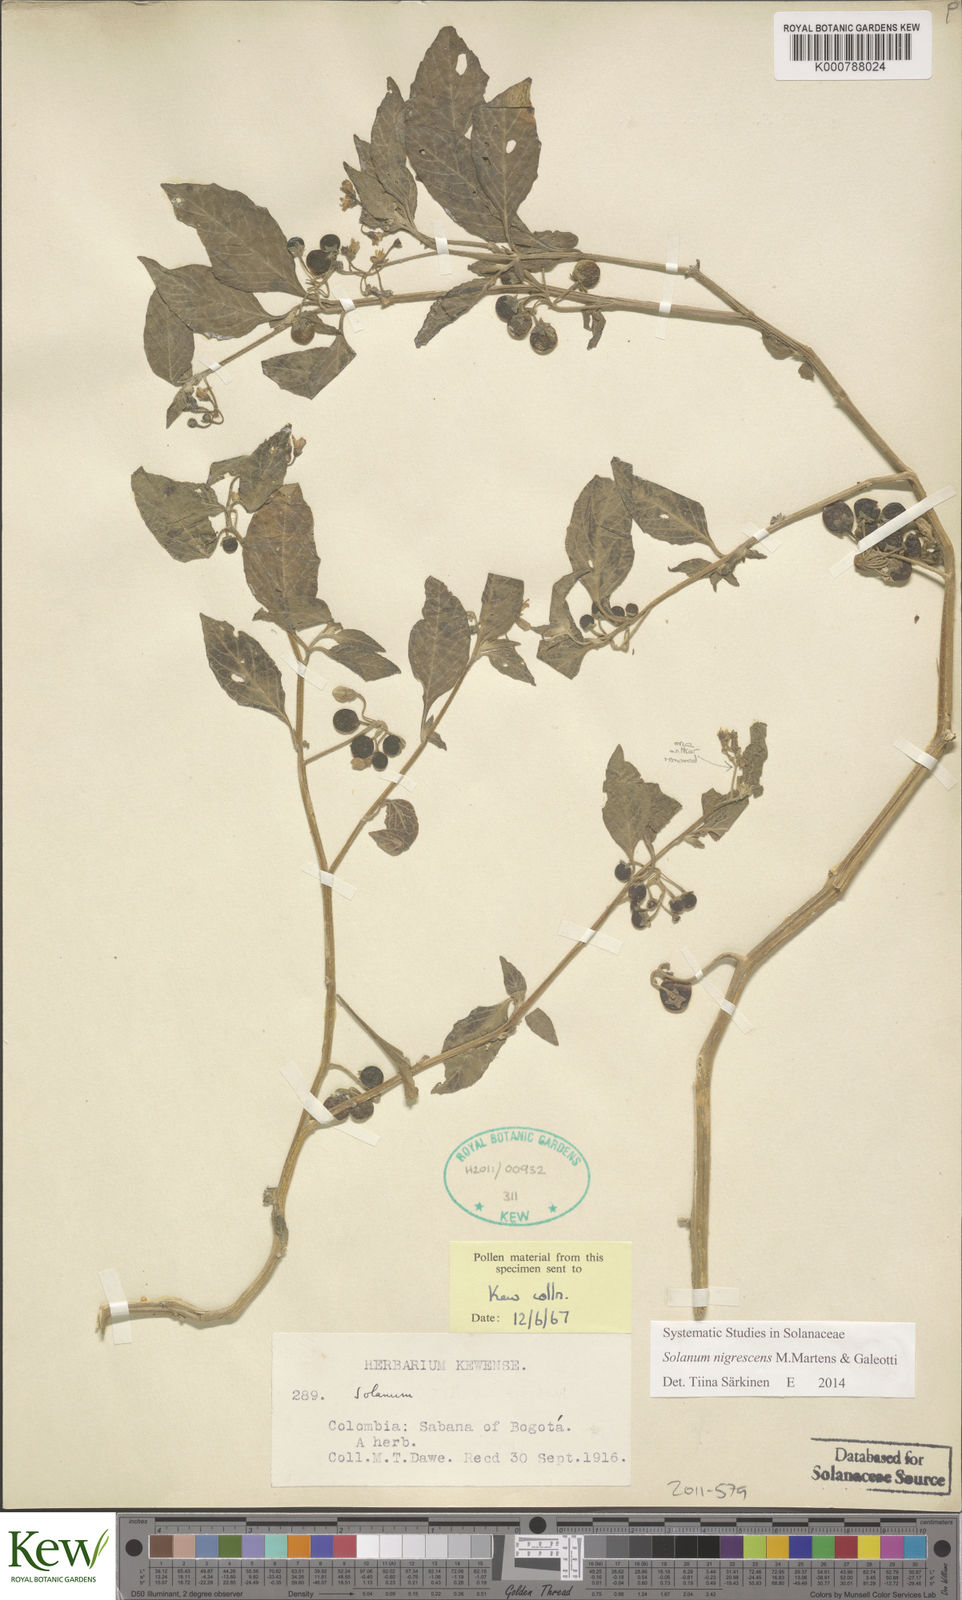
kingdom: Plantae
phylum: Tracheophyta
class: Magnoliopsida
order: Solanales
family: Solanaceae
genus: Solanum
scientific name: Solanum nigrescens
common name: Divine nightshade
